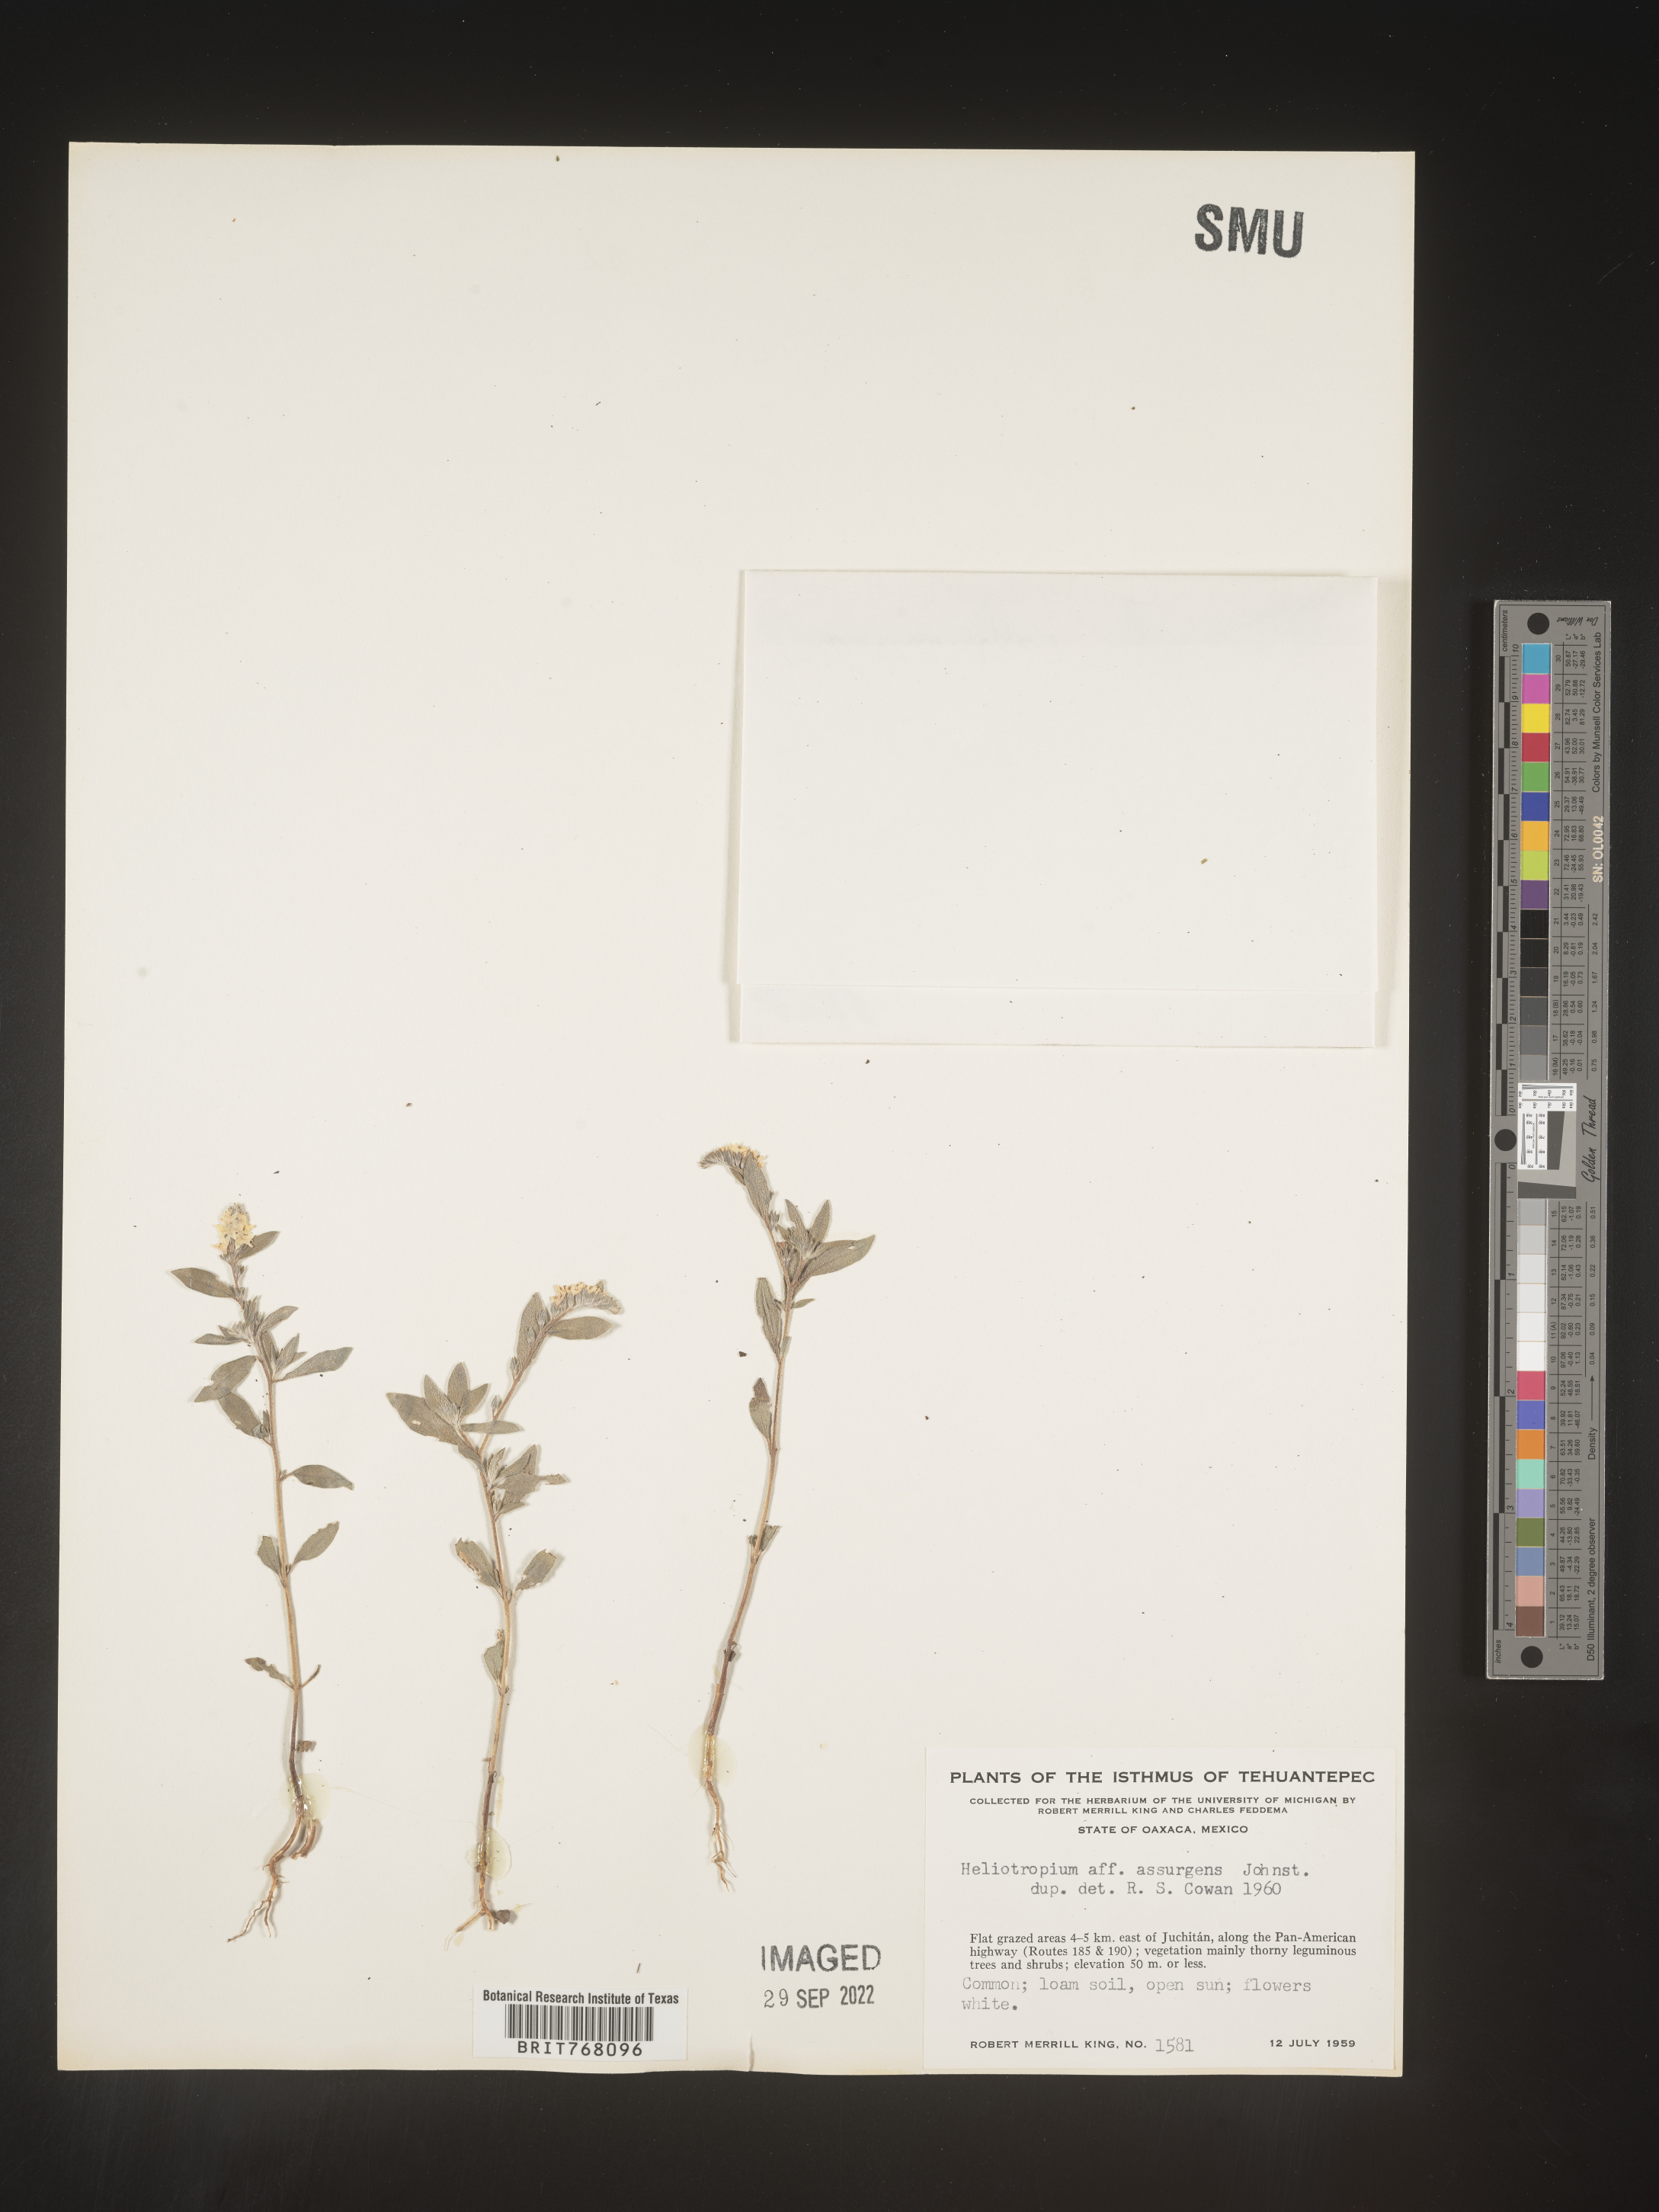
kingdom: Plantae
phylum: Tracheophyta
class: Magnoliopsida
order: Boraginales
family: Heliotropiaceae
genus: Heliotropium
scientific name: Heliotropium
